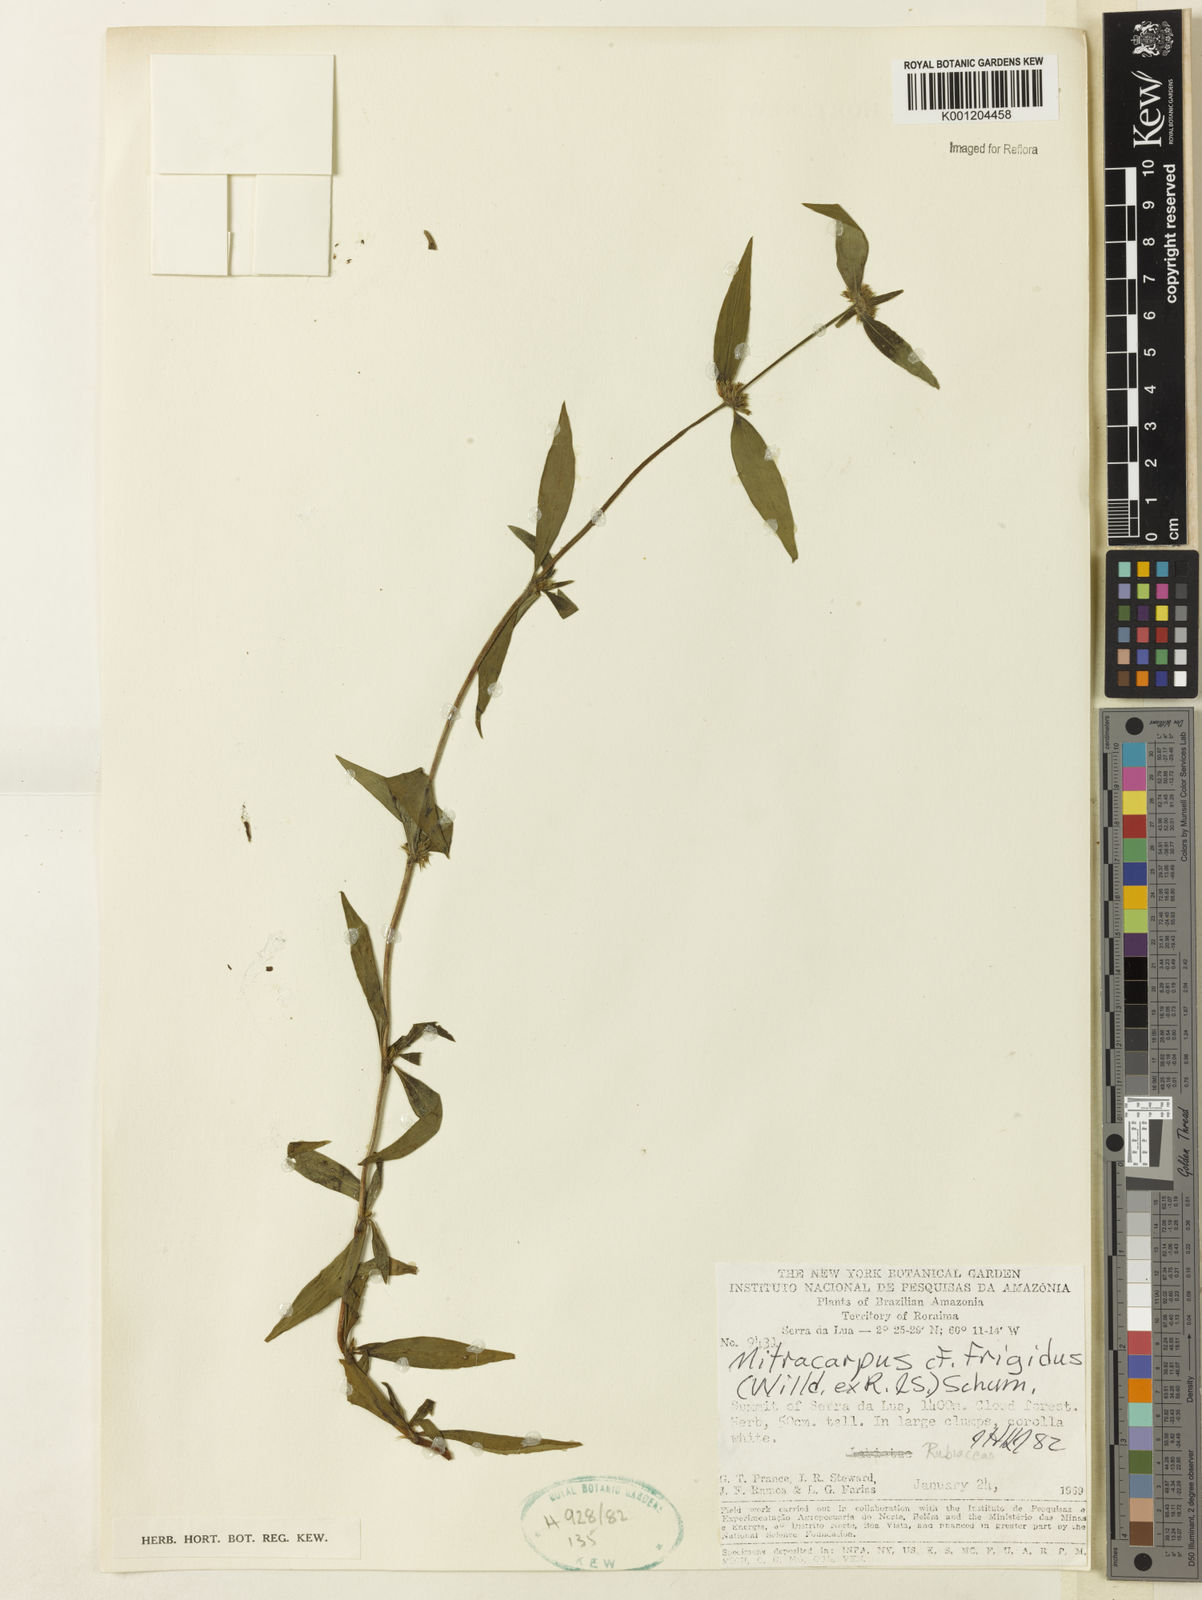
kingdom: Plantae
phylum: Tracheophyta
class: Magnoliopsida
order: Gentianales
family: Rubiaceae
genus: Mitracarpus
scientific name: Mitracarpus frigidus
